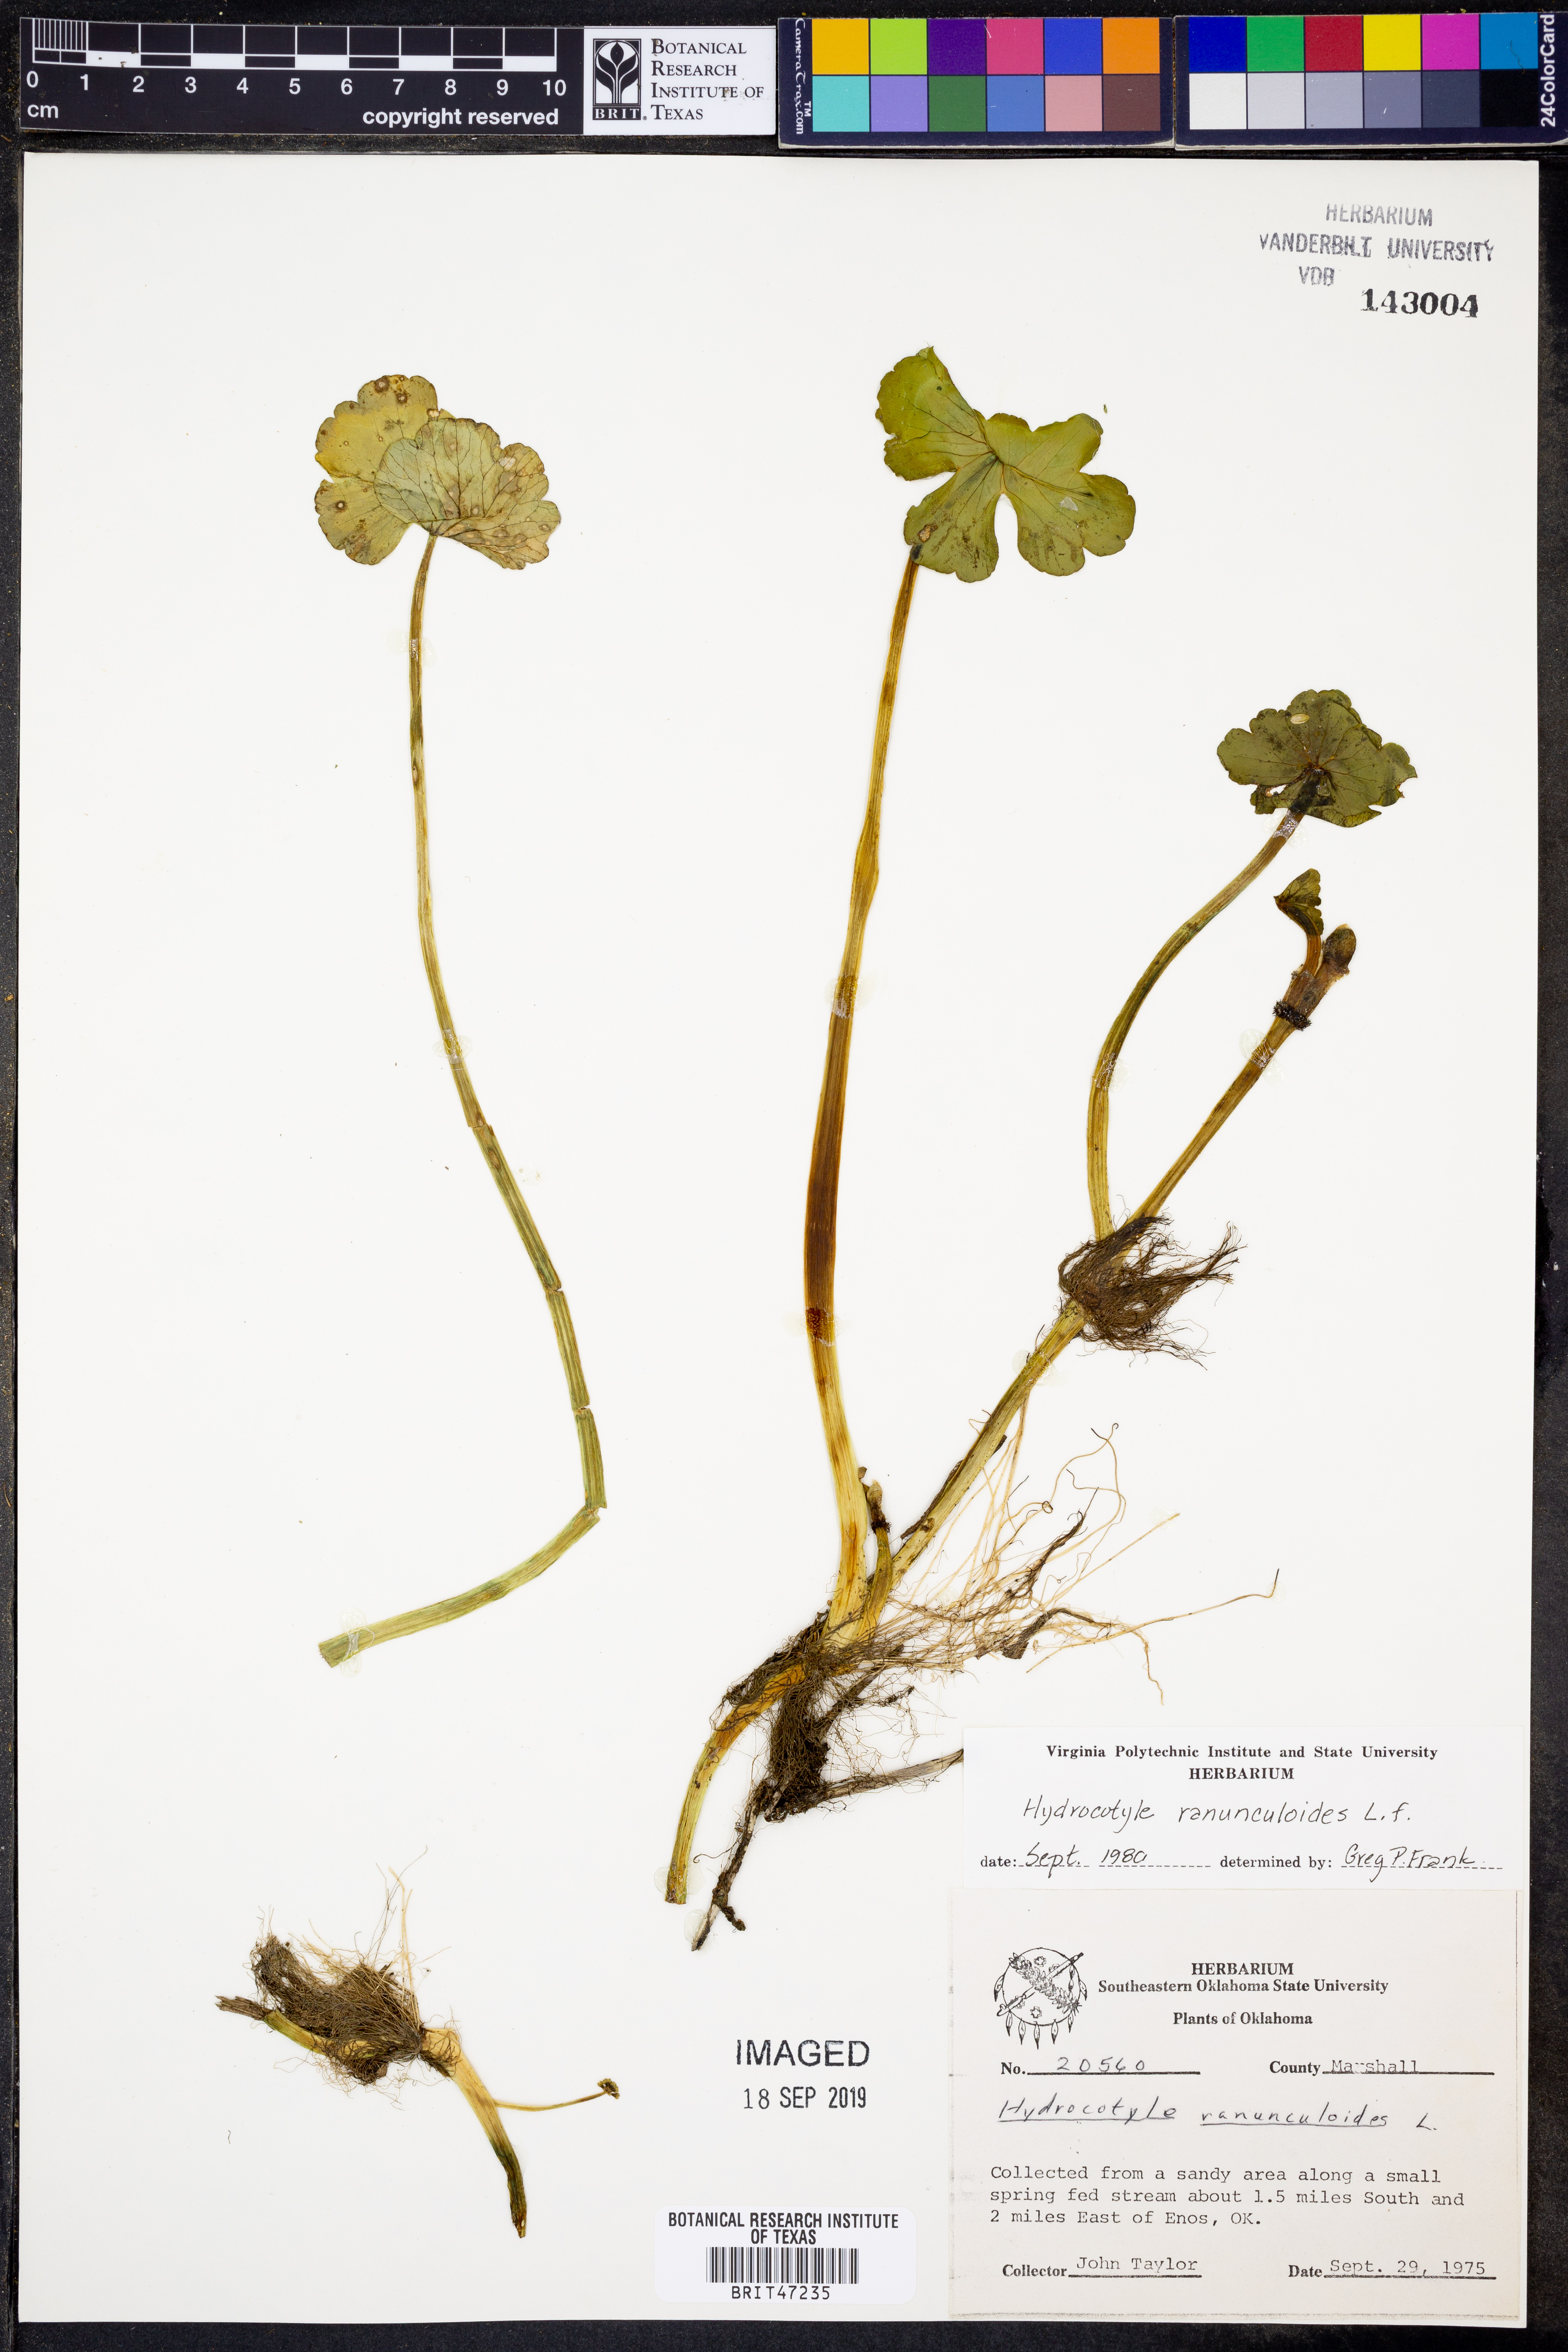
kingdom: Plantae
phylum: Tracheophyta
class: Magnoliopsida
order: Apiales
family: Araliaceae
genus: Hydrocotyle
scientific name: Hydrocotyle ranunculoides
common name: Floating pennywort
